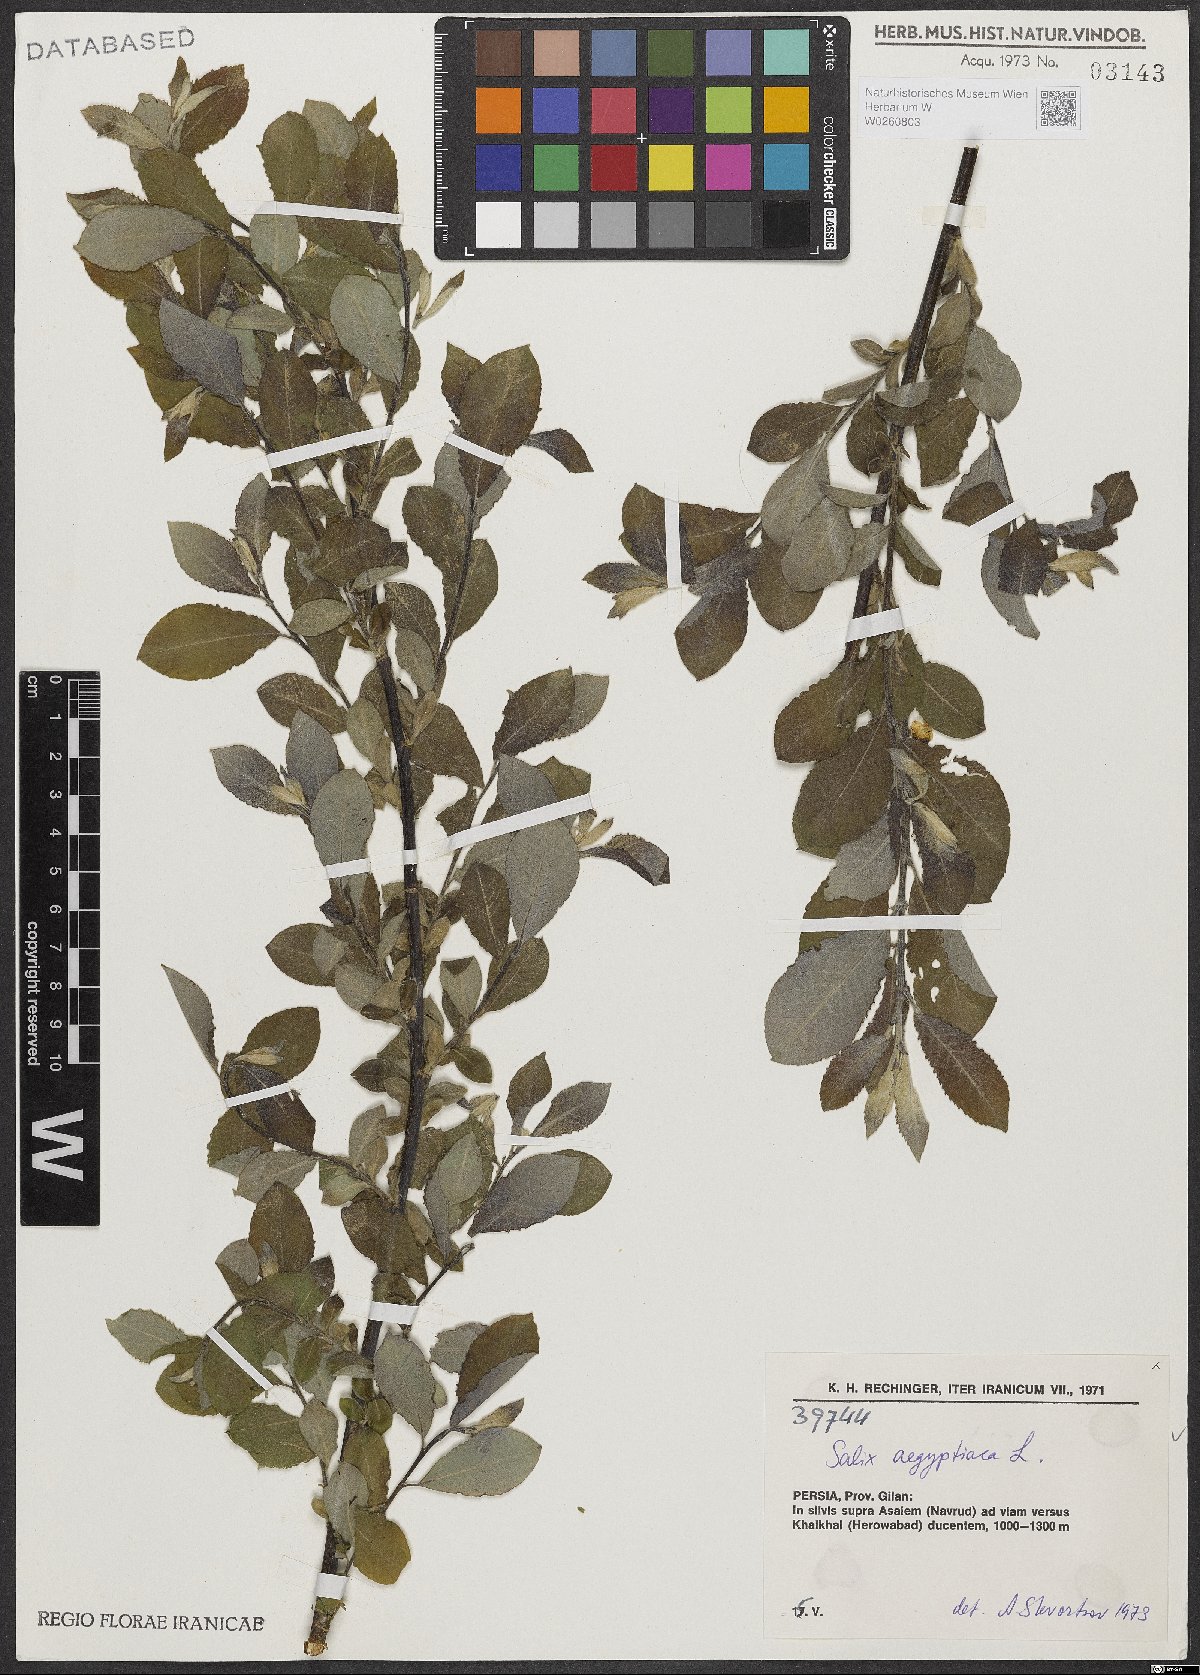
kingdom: Plantae
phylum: Tracheophyta
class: Magnoliopsida
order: Malpighiales
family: Salicaceae
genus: Salix
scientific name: Salix aegyptiaca
